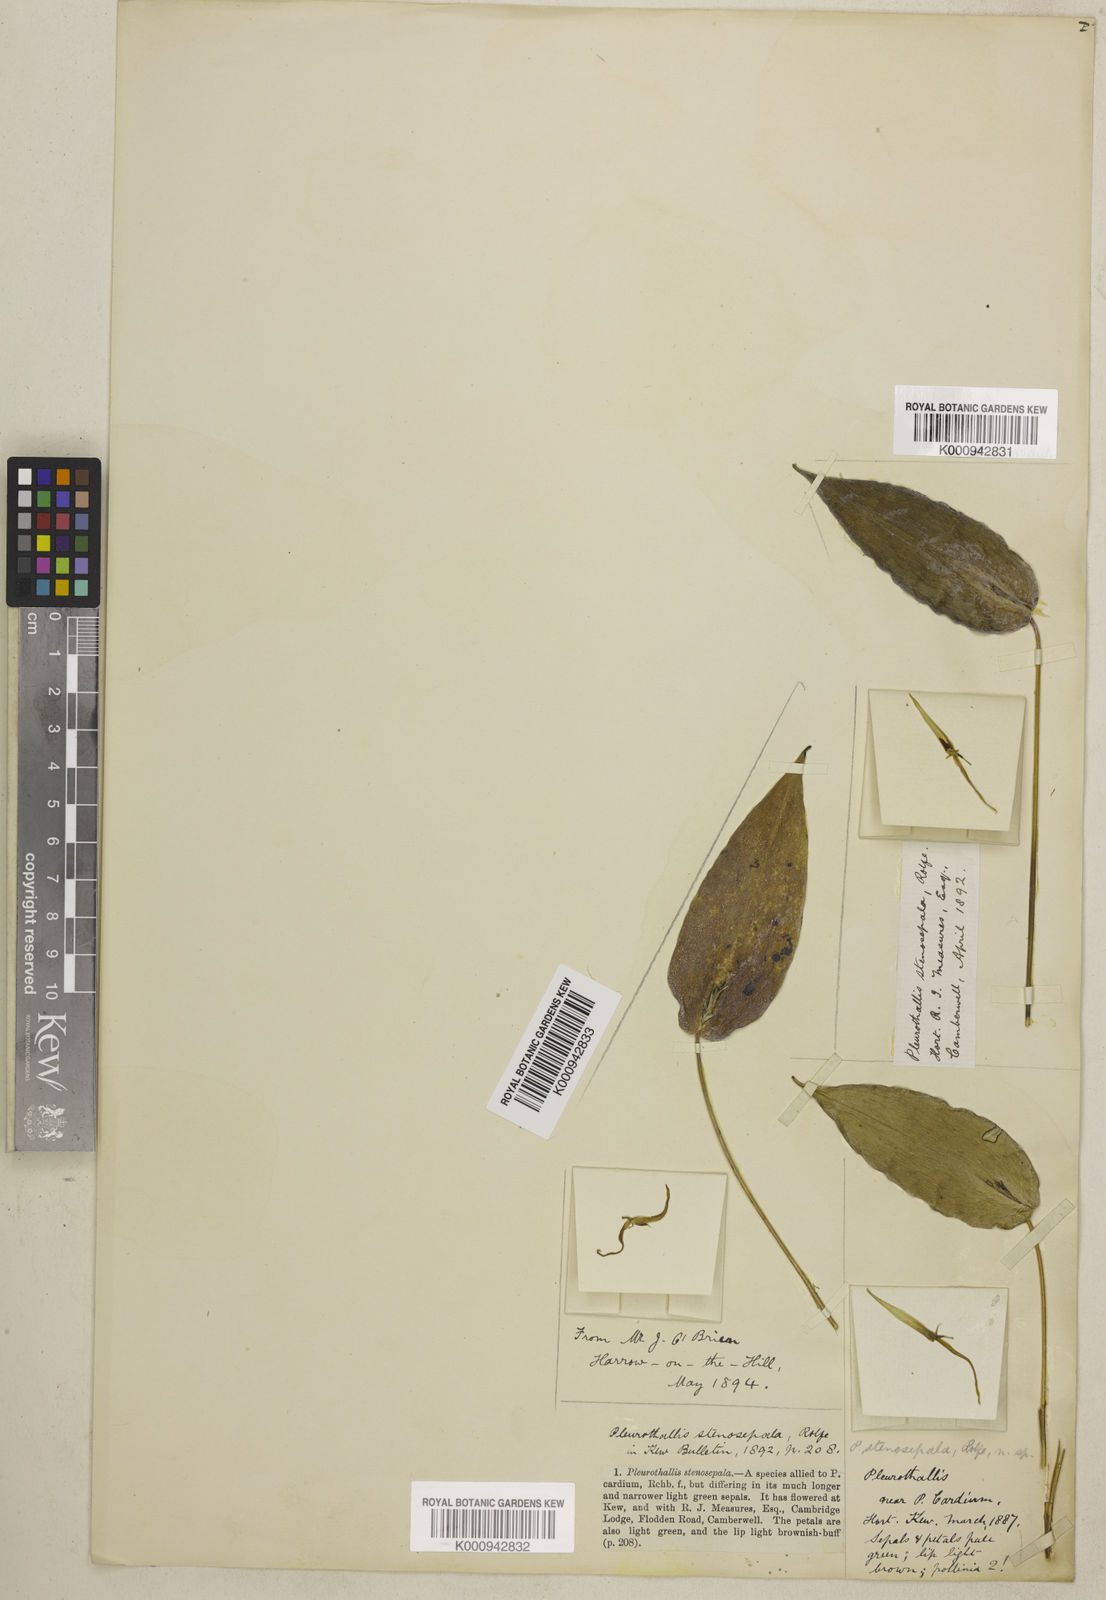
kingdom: Plantae
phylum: Tracheophyta
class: Liliopsida
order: Asparagales
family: Orchidaceae
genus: Pleurothallis
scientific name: Pleurothallis microcardia
